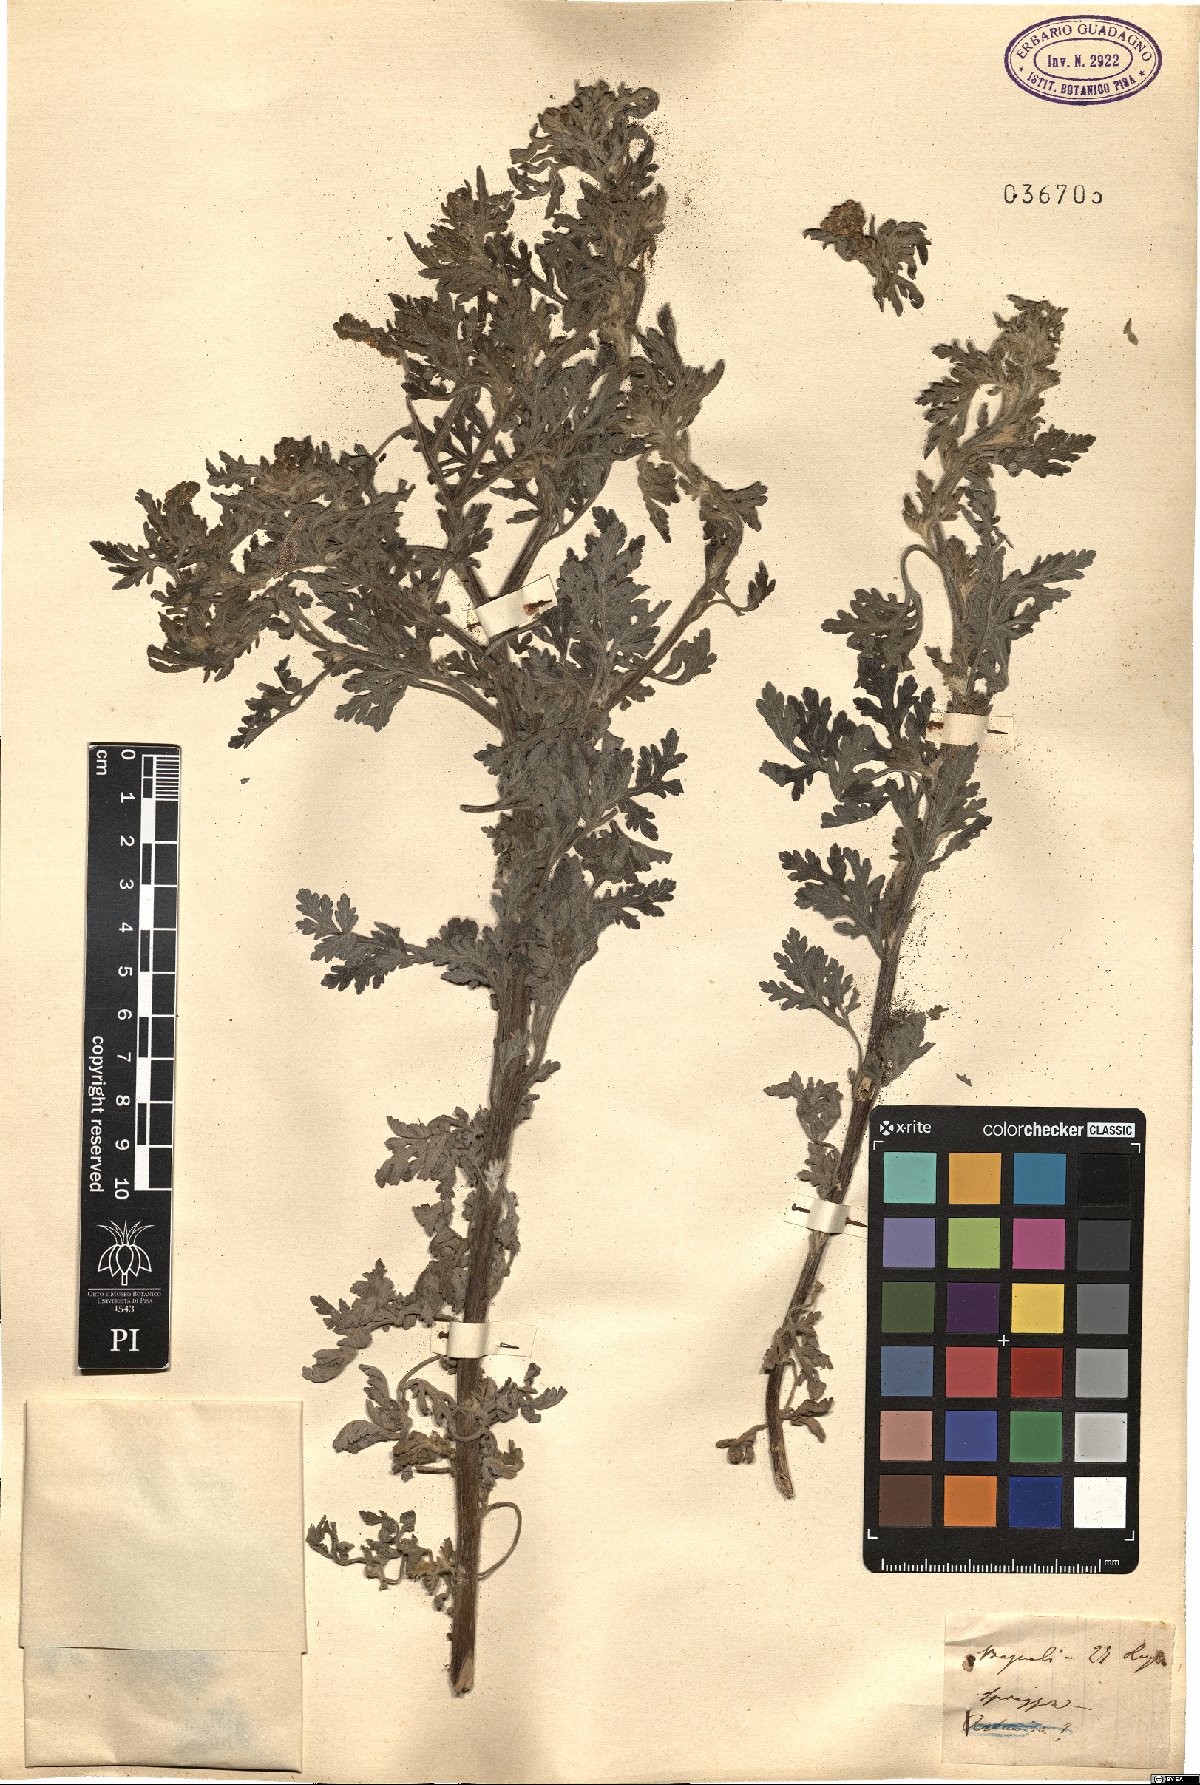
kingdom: Plantae
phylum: Tracheophyta
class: Magnoliopsida
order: Asterales
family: Asteraceae
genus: Ambrosia
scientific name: Ambrosia
